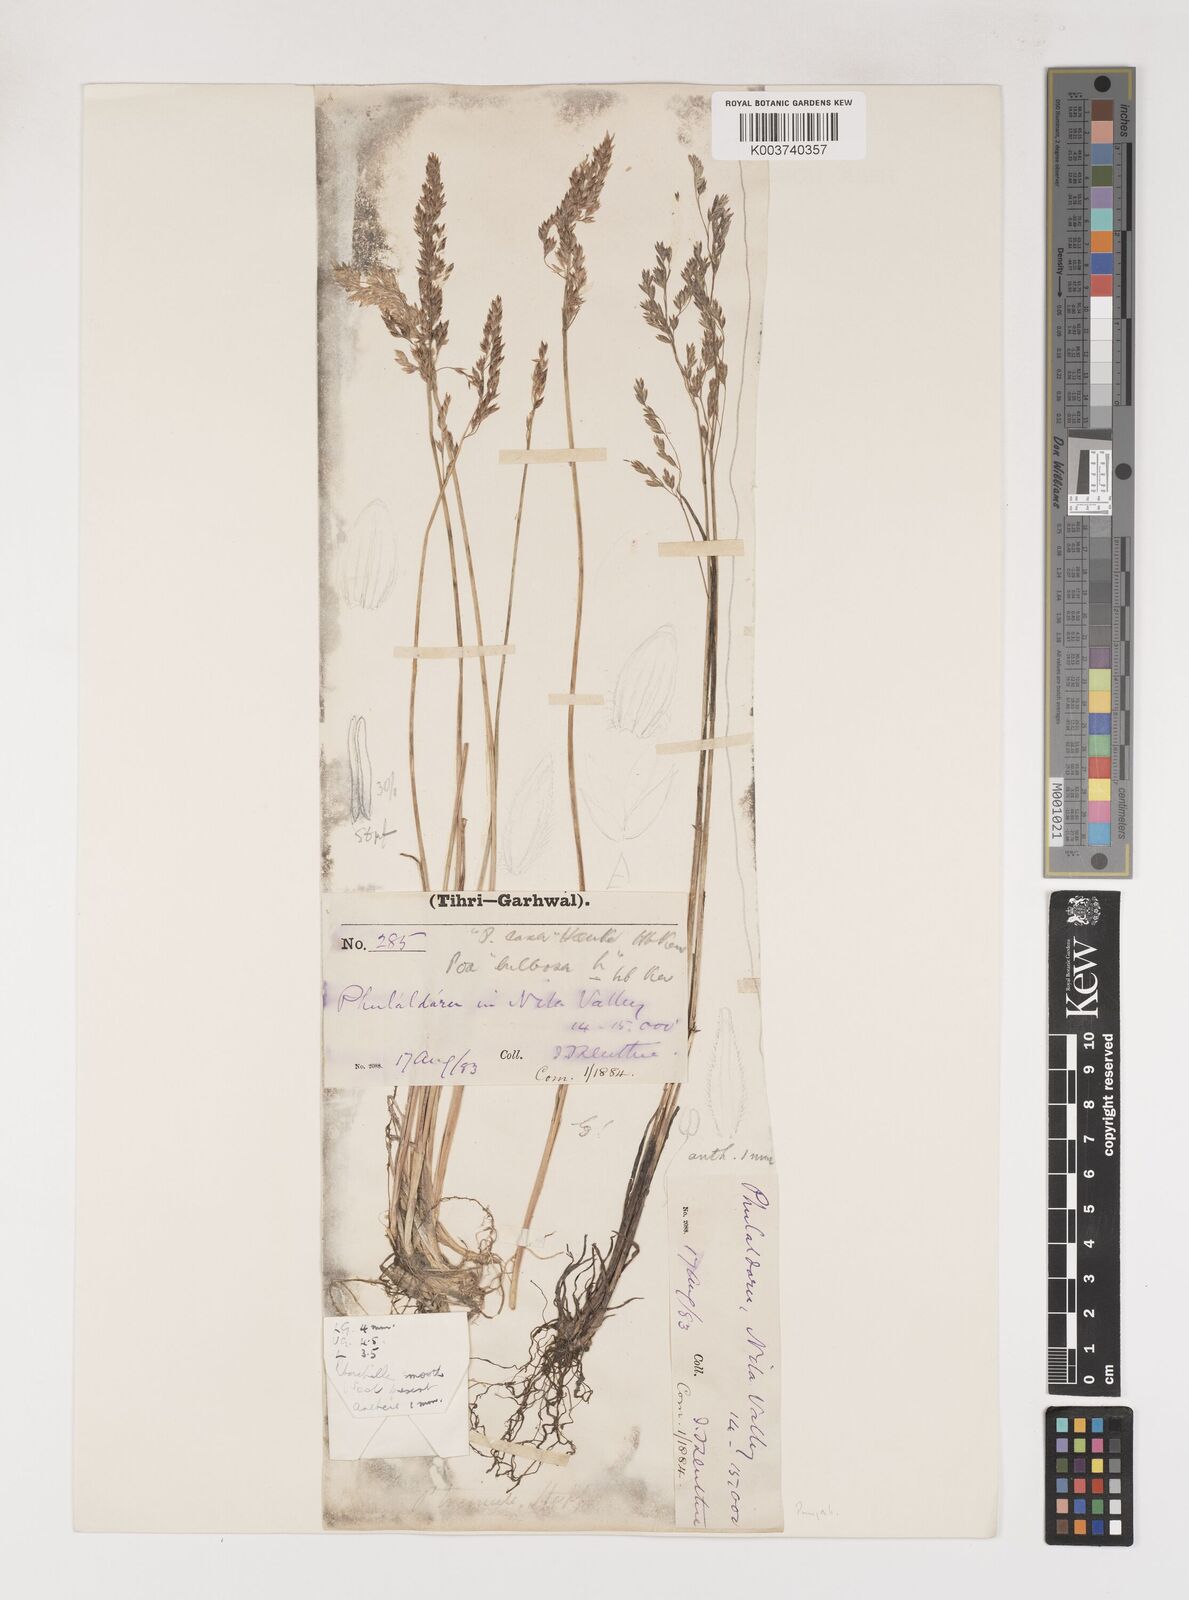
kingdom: Plantae
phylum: Tracheophyta
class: Liliopsida
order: Poales
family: Poaceae
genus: Poa
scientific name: Poa stapfiana
